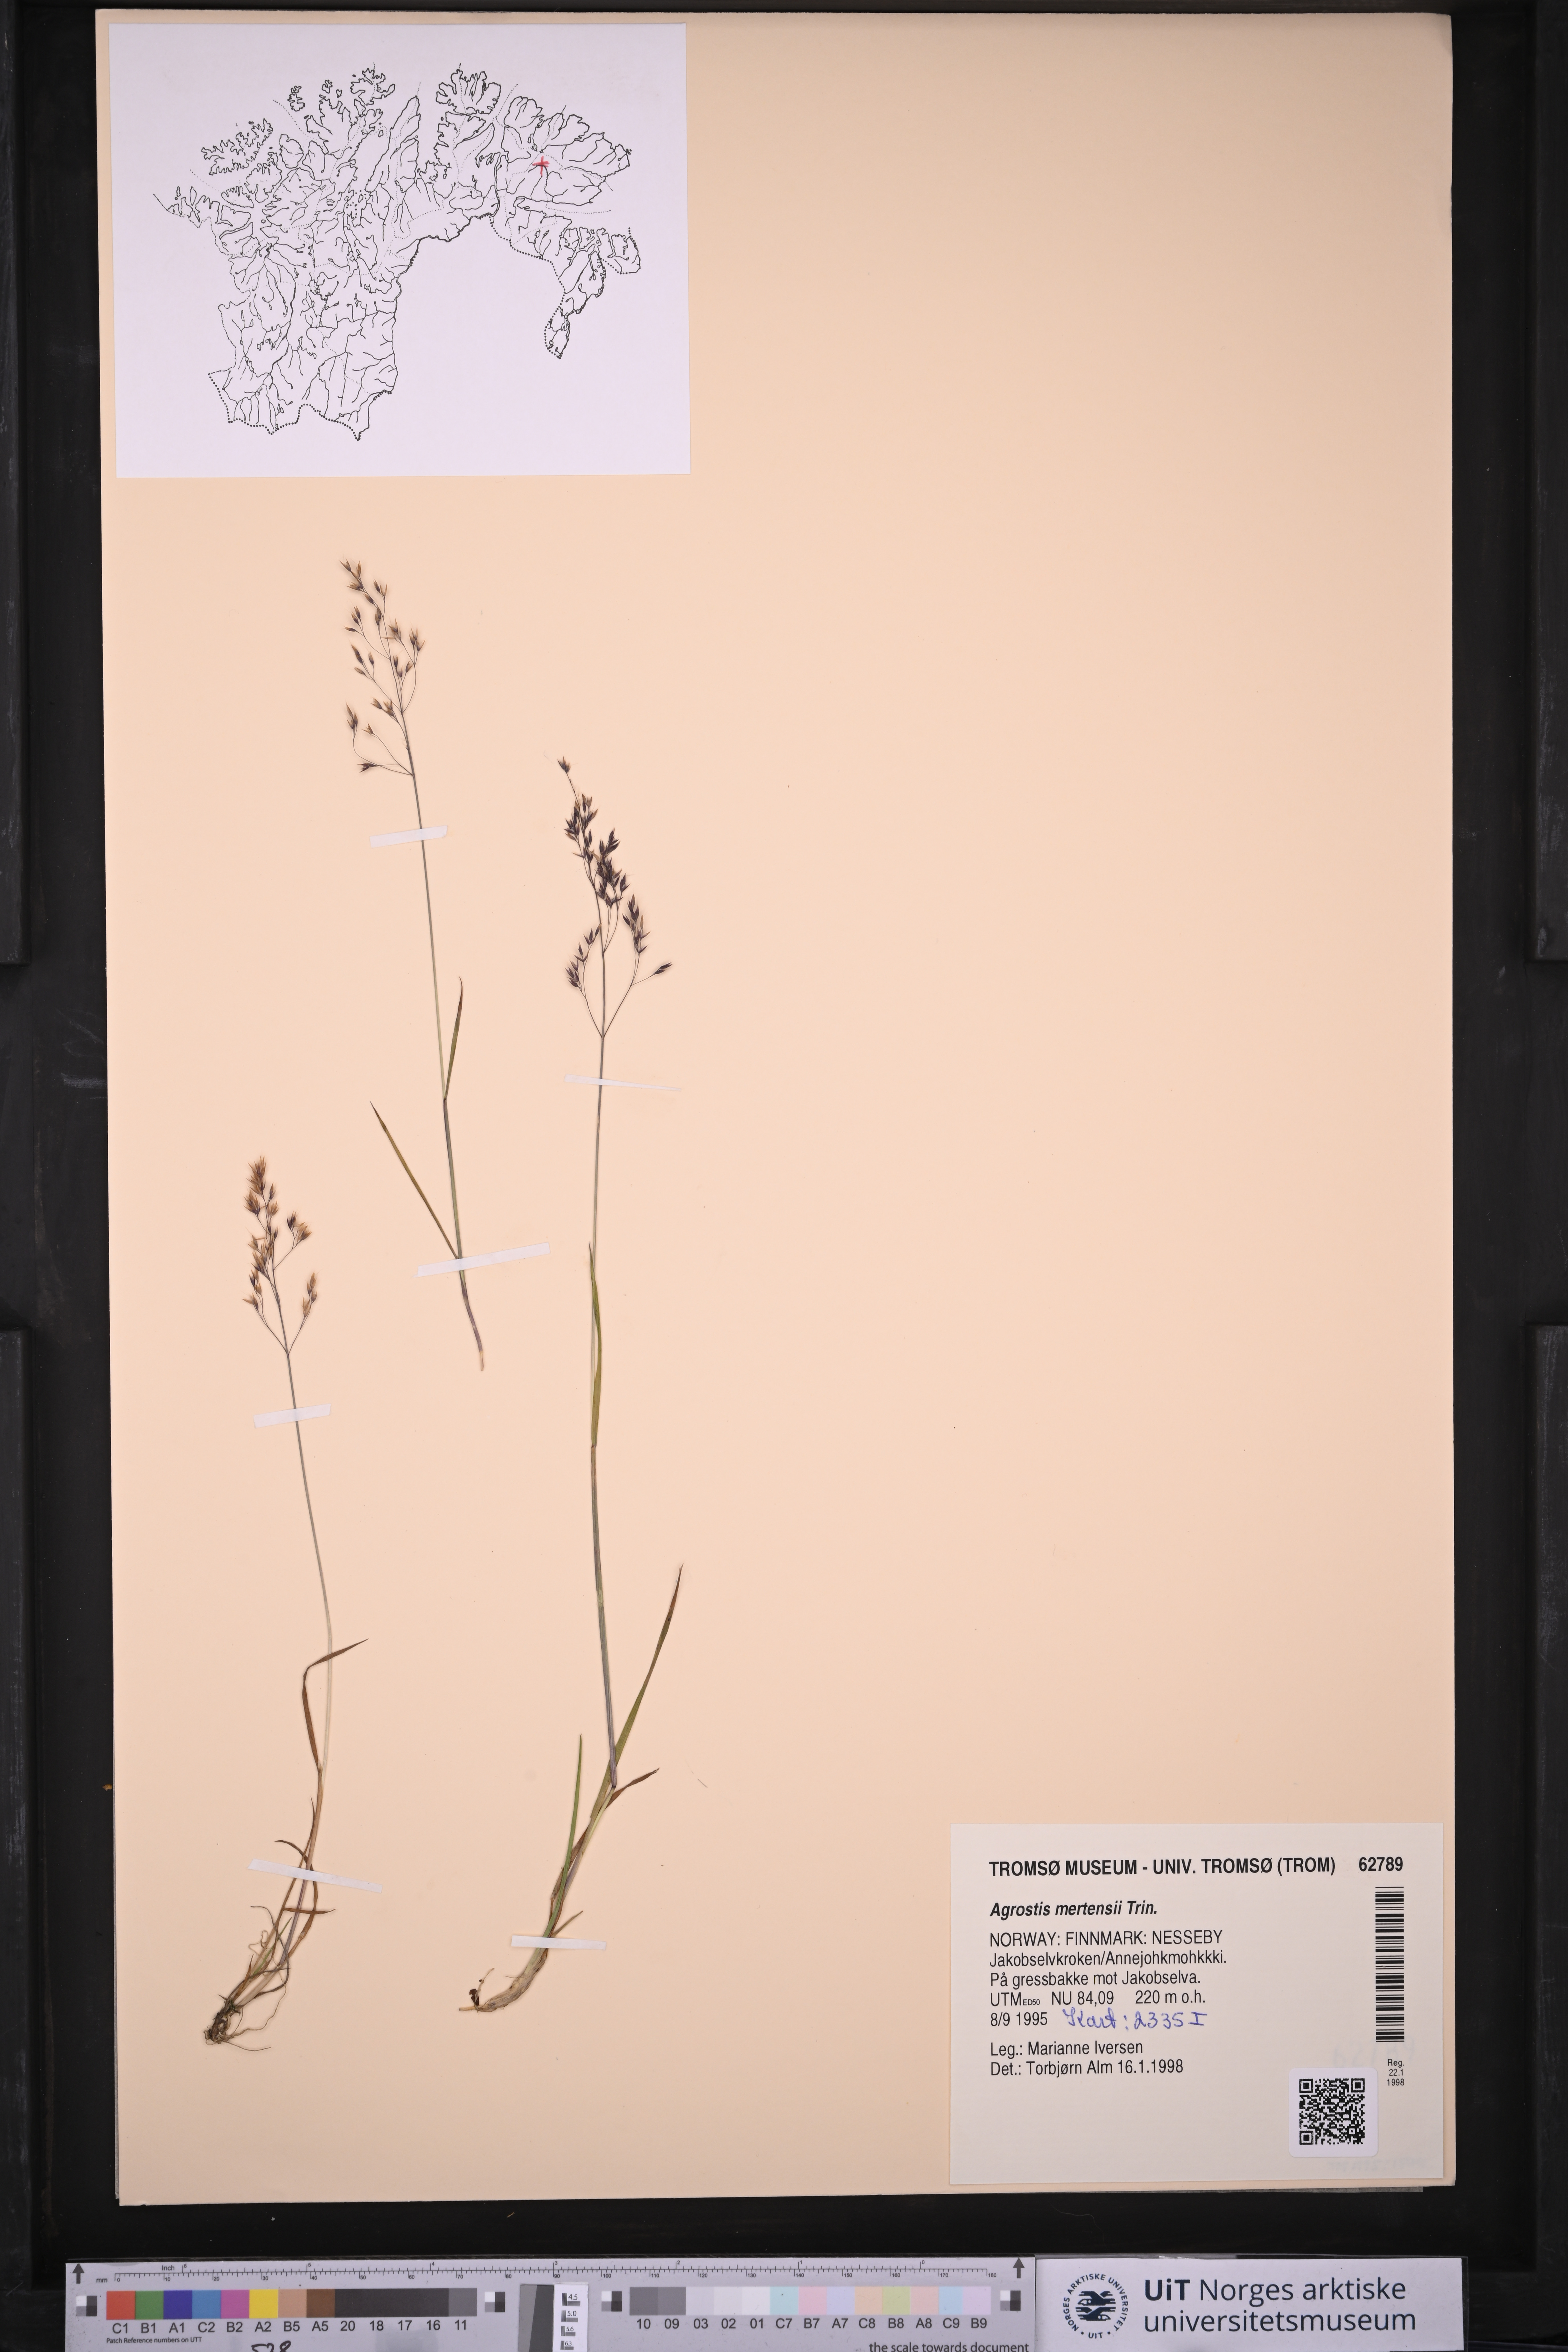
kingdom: Plantae
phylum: Tracheophyta
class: Liliopsida
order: Poales
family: Poaceae
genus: Agrostis
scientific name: Agrostis mertensii
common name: Northern bent
